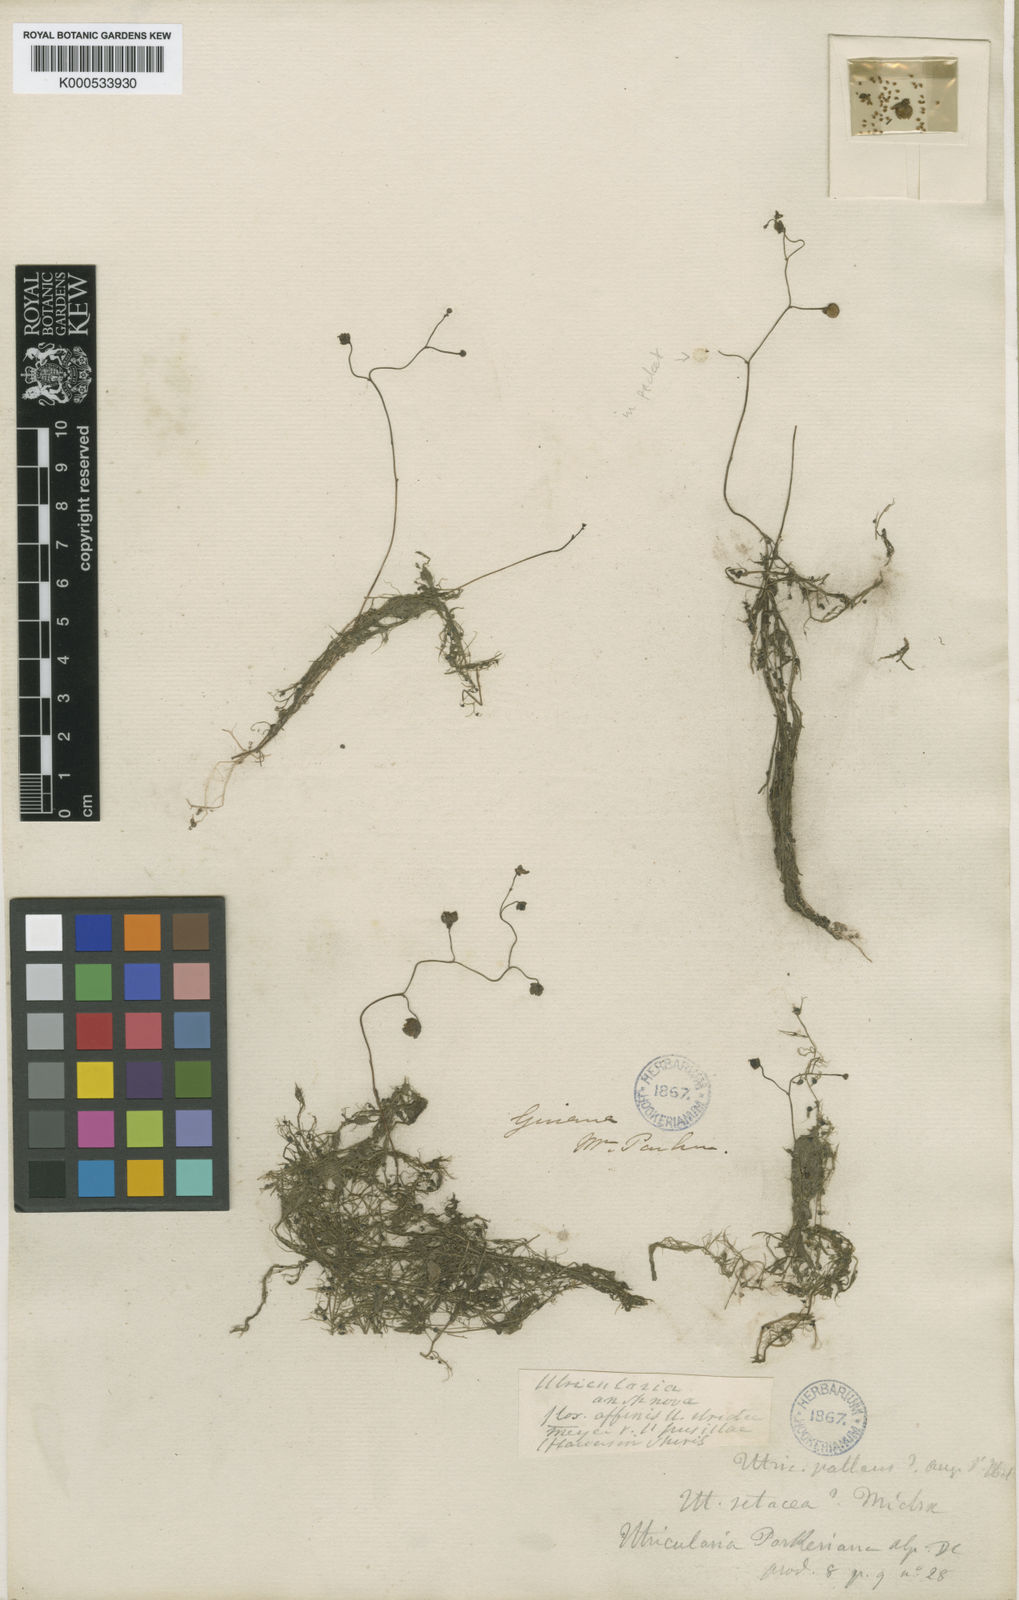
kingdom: Plantae
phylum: Tracheophyta
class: Magnoliopsida
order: Lamiales
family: Lentibulariaceae
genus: Utricularia
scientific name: Utricularia gibba
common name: Humped bladderwort
